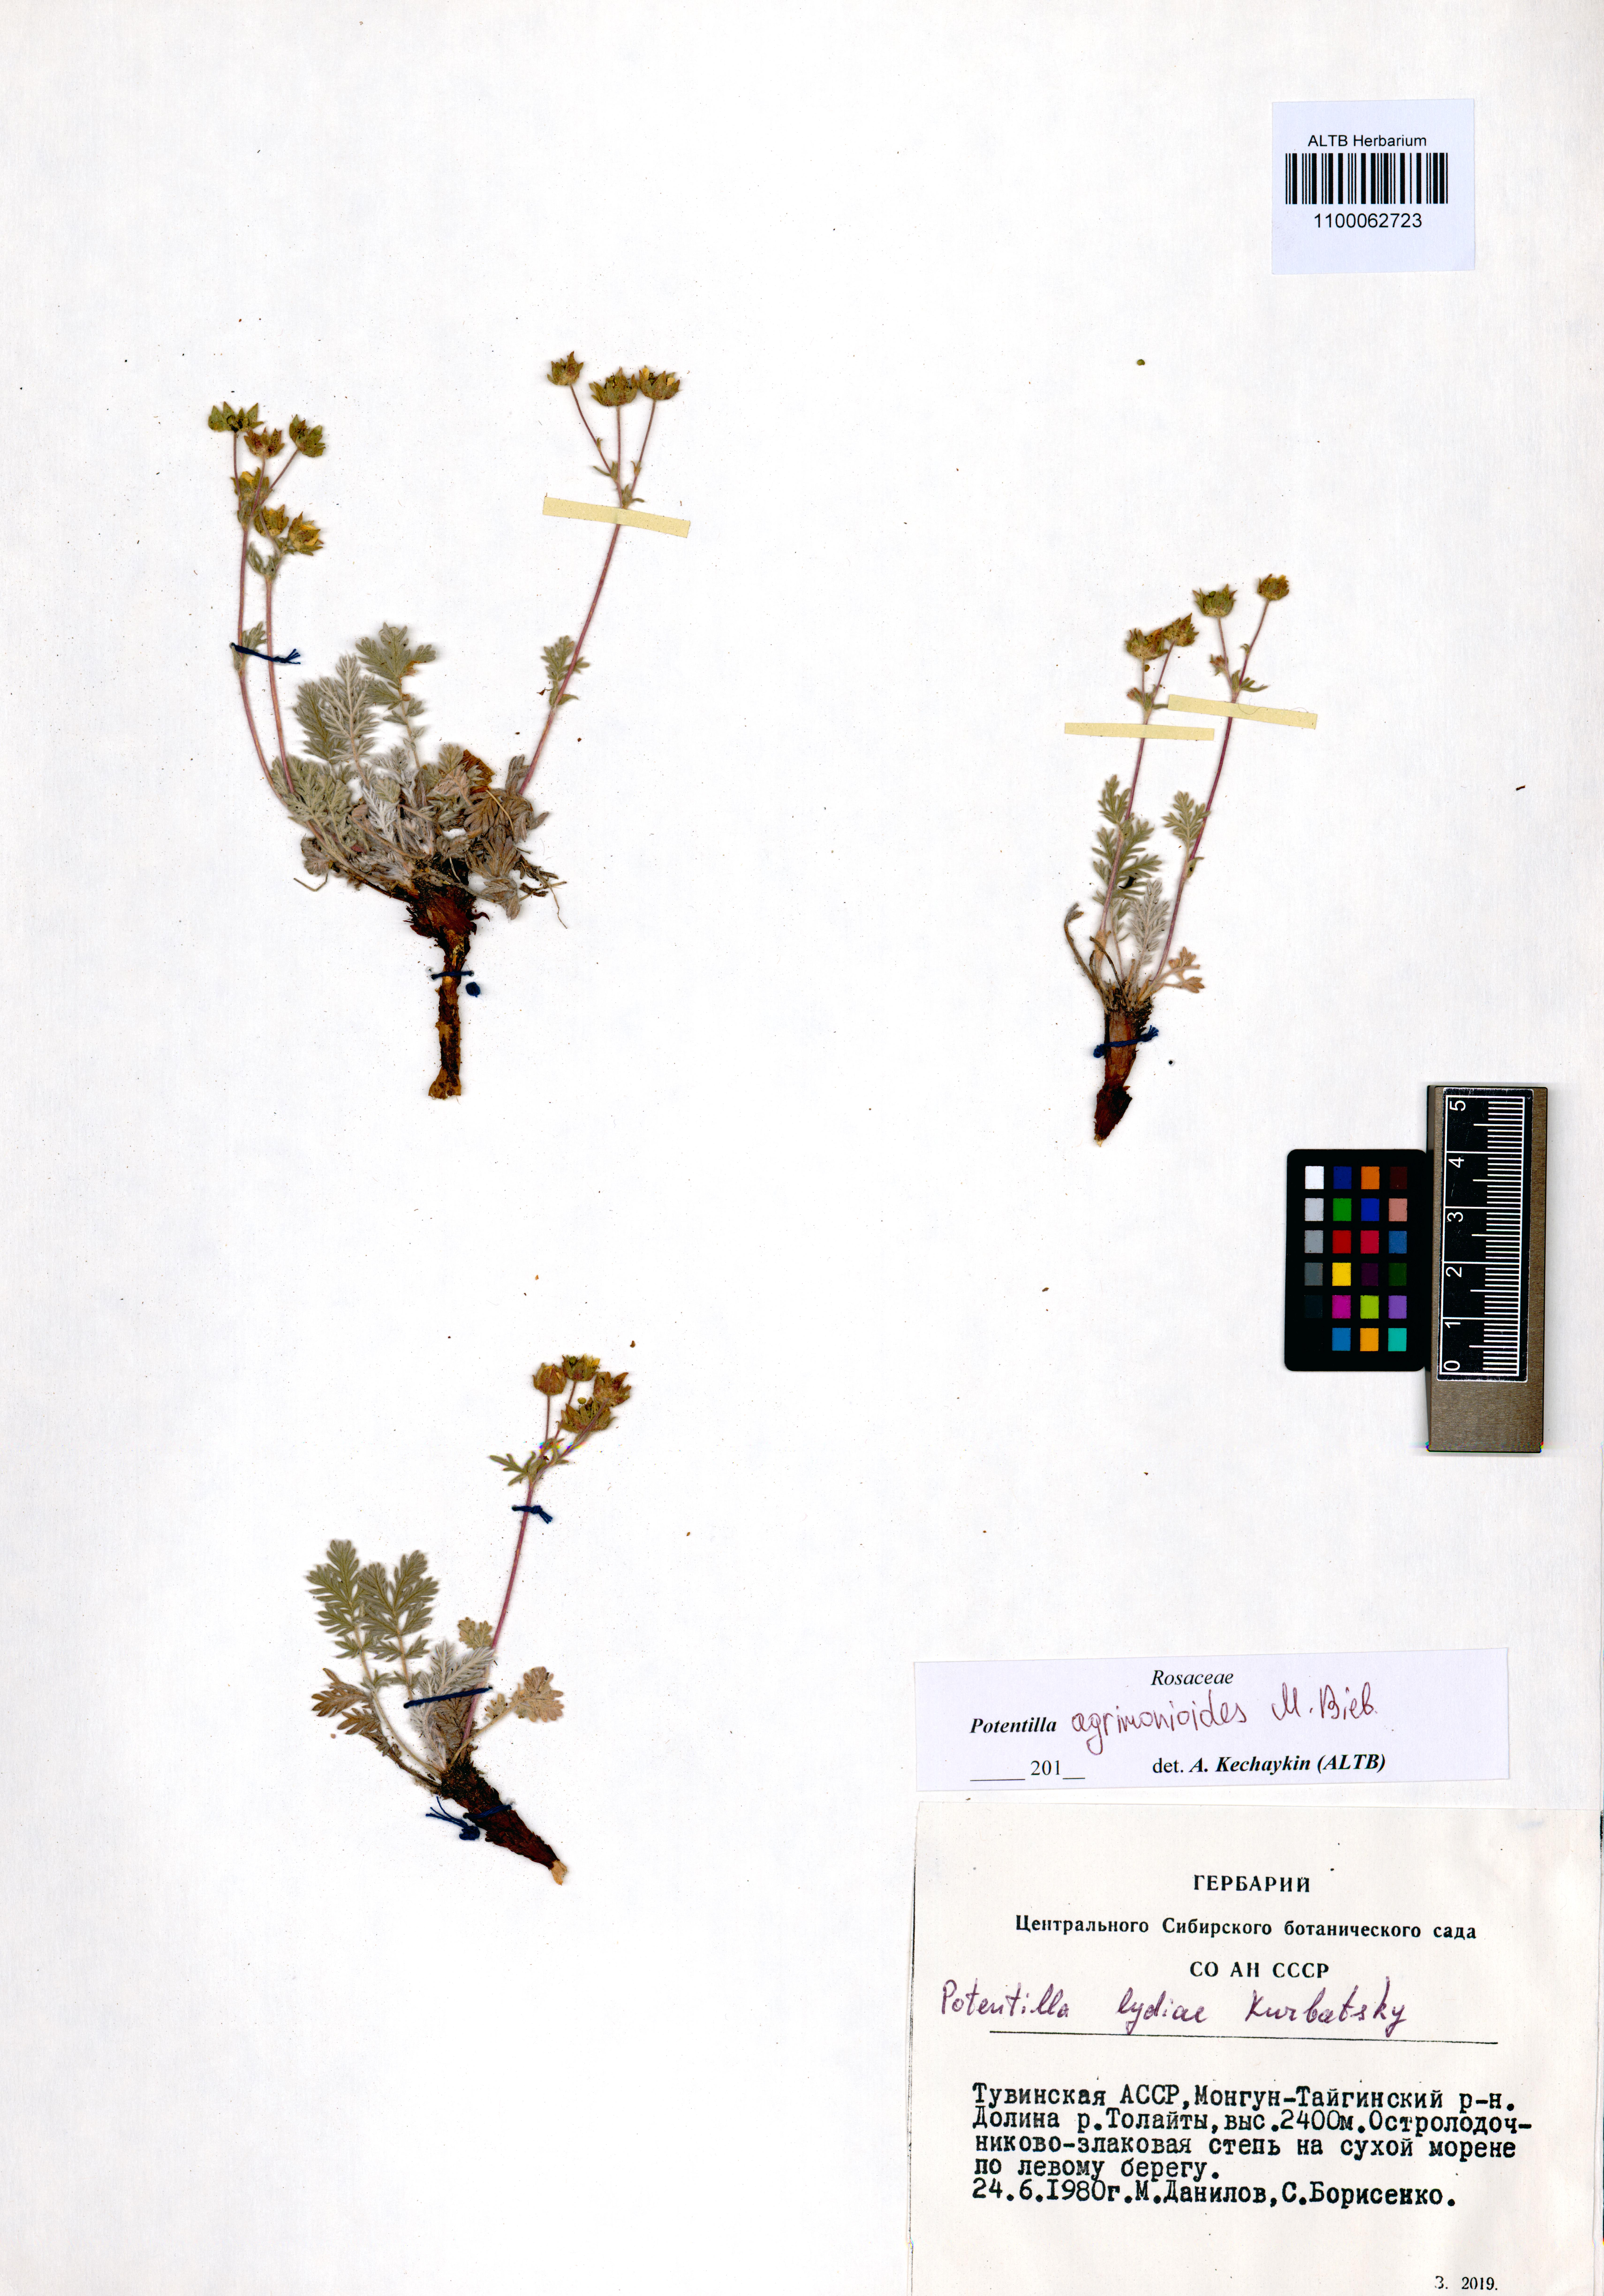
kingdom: Plantae
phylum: Tracheophyta
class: Magnoliopsida
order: Rosales
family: Rosaceae
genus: Potentilla
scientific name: Potentilla agrimonioides
